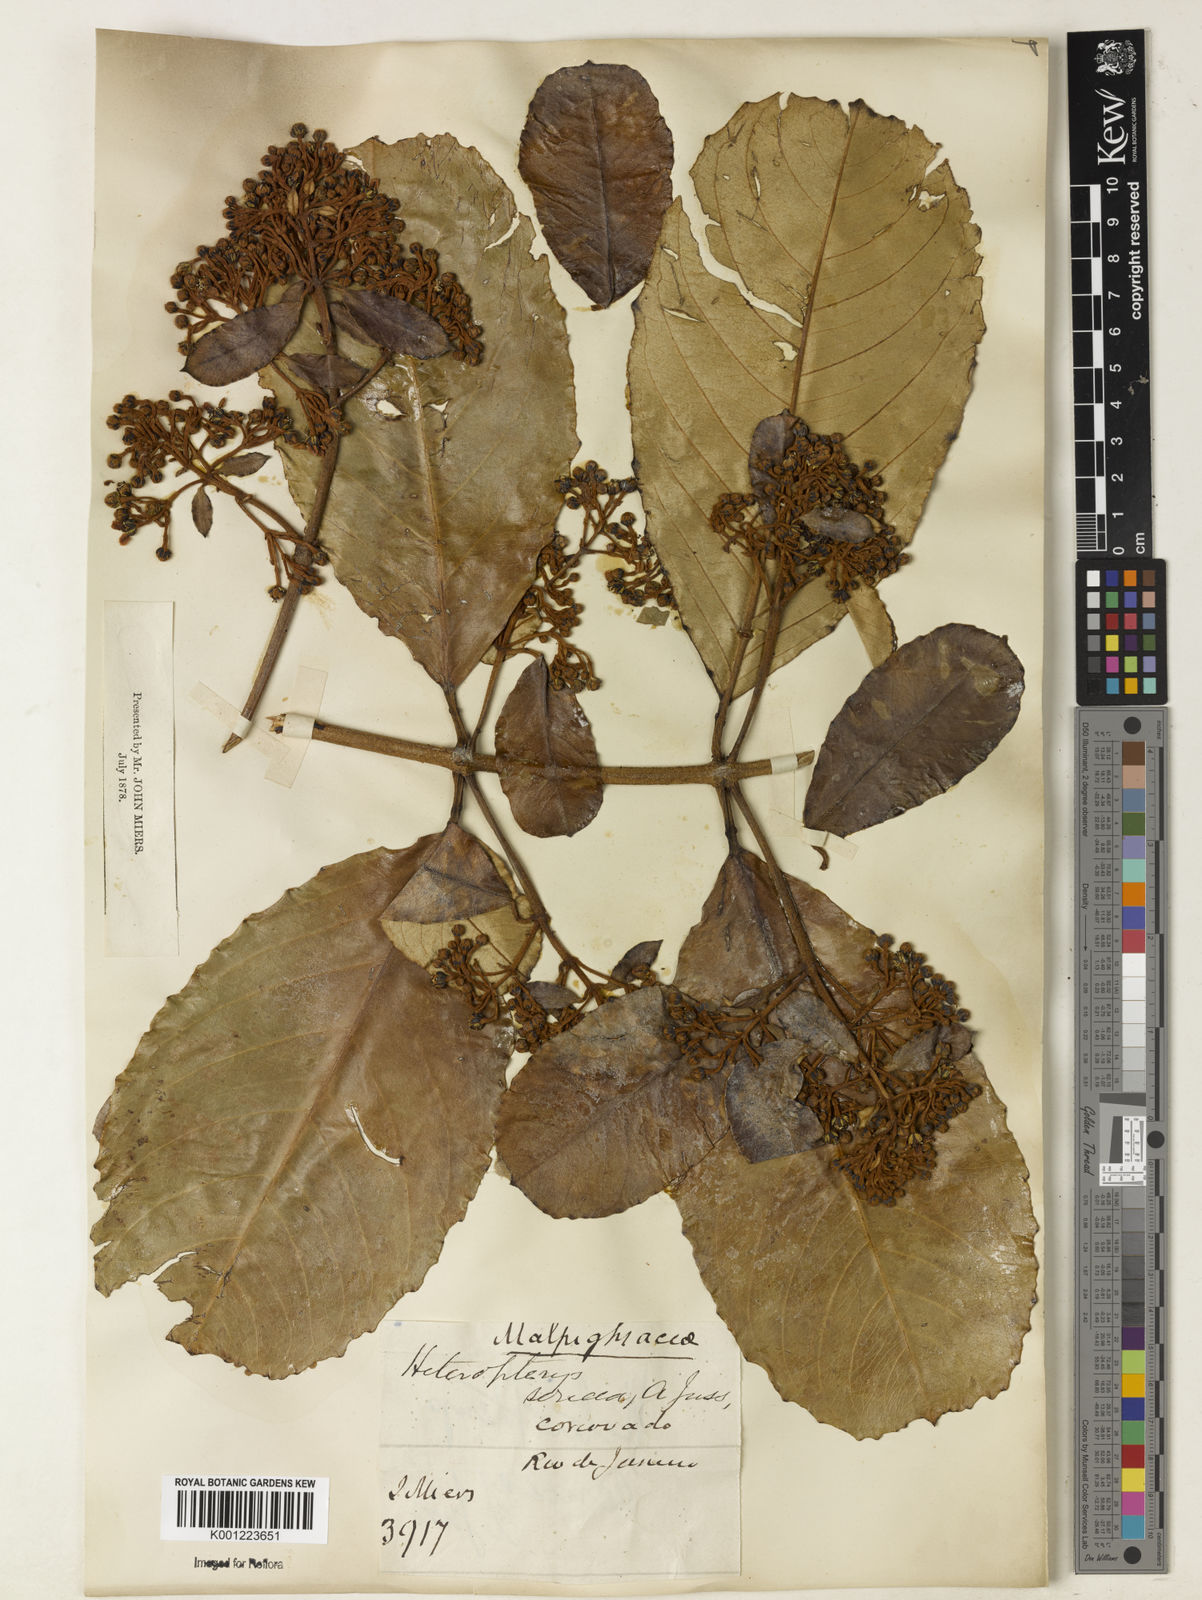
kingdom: Plantae
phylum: Tracheophyta
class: Magnoliopsida
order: Malpighiales
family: Malpighiaceae
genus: Heteropterys
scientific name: Heteropterys sericea
